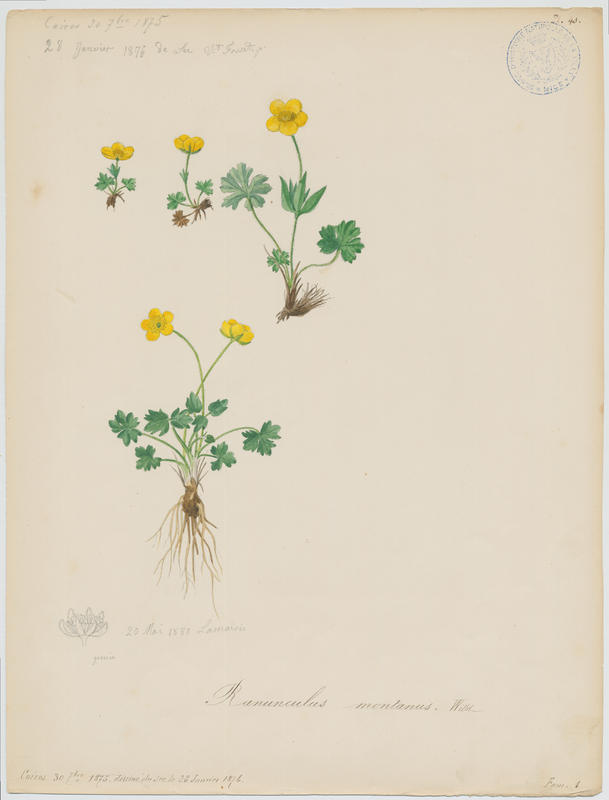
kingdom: Plantae
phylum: Tracheophyta
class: Magnoliopsida
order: Ranunculales
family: Ranunculaceae
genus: Ranunculus
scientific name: Ranunculus montanus
